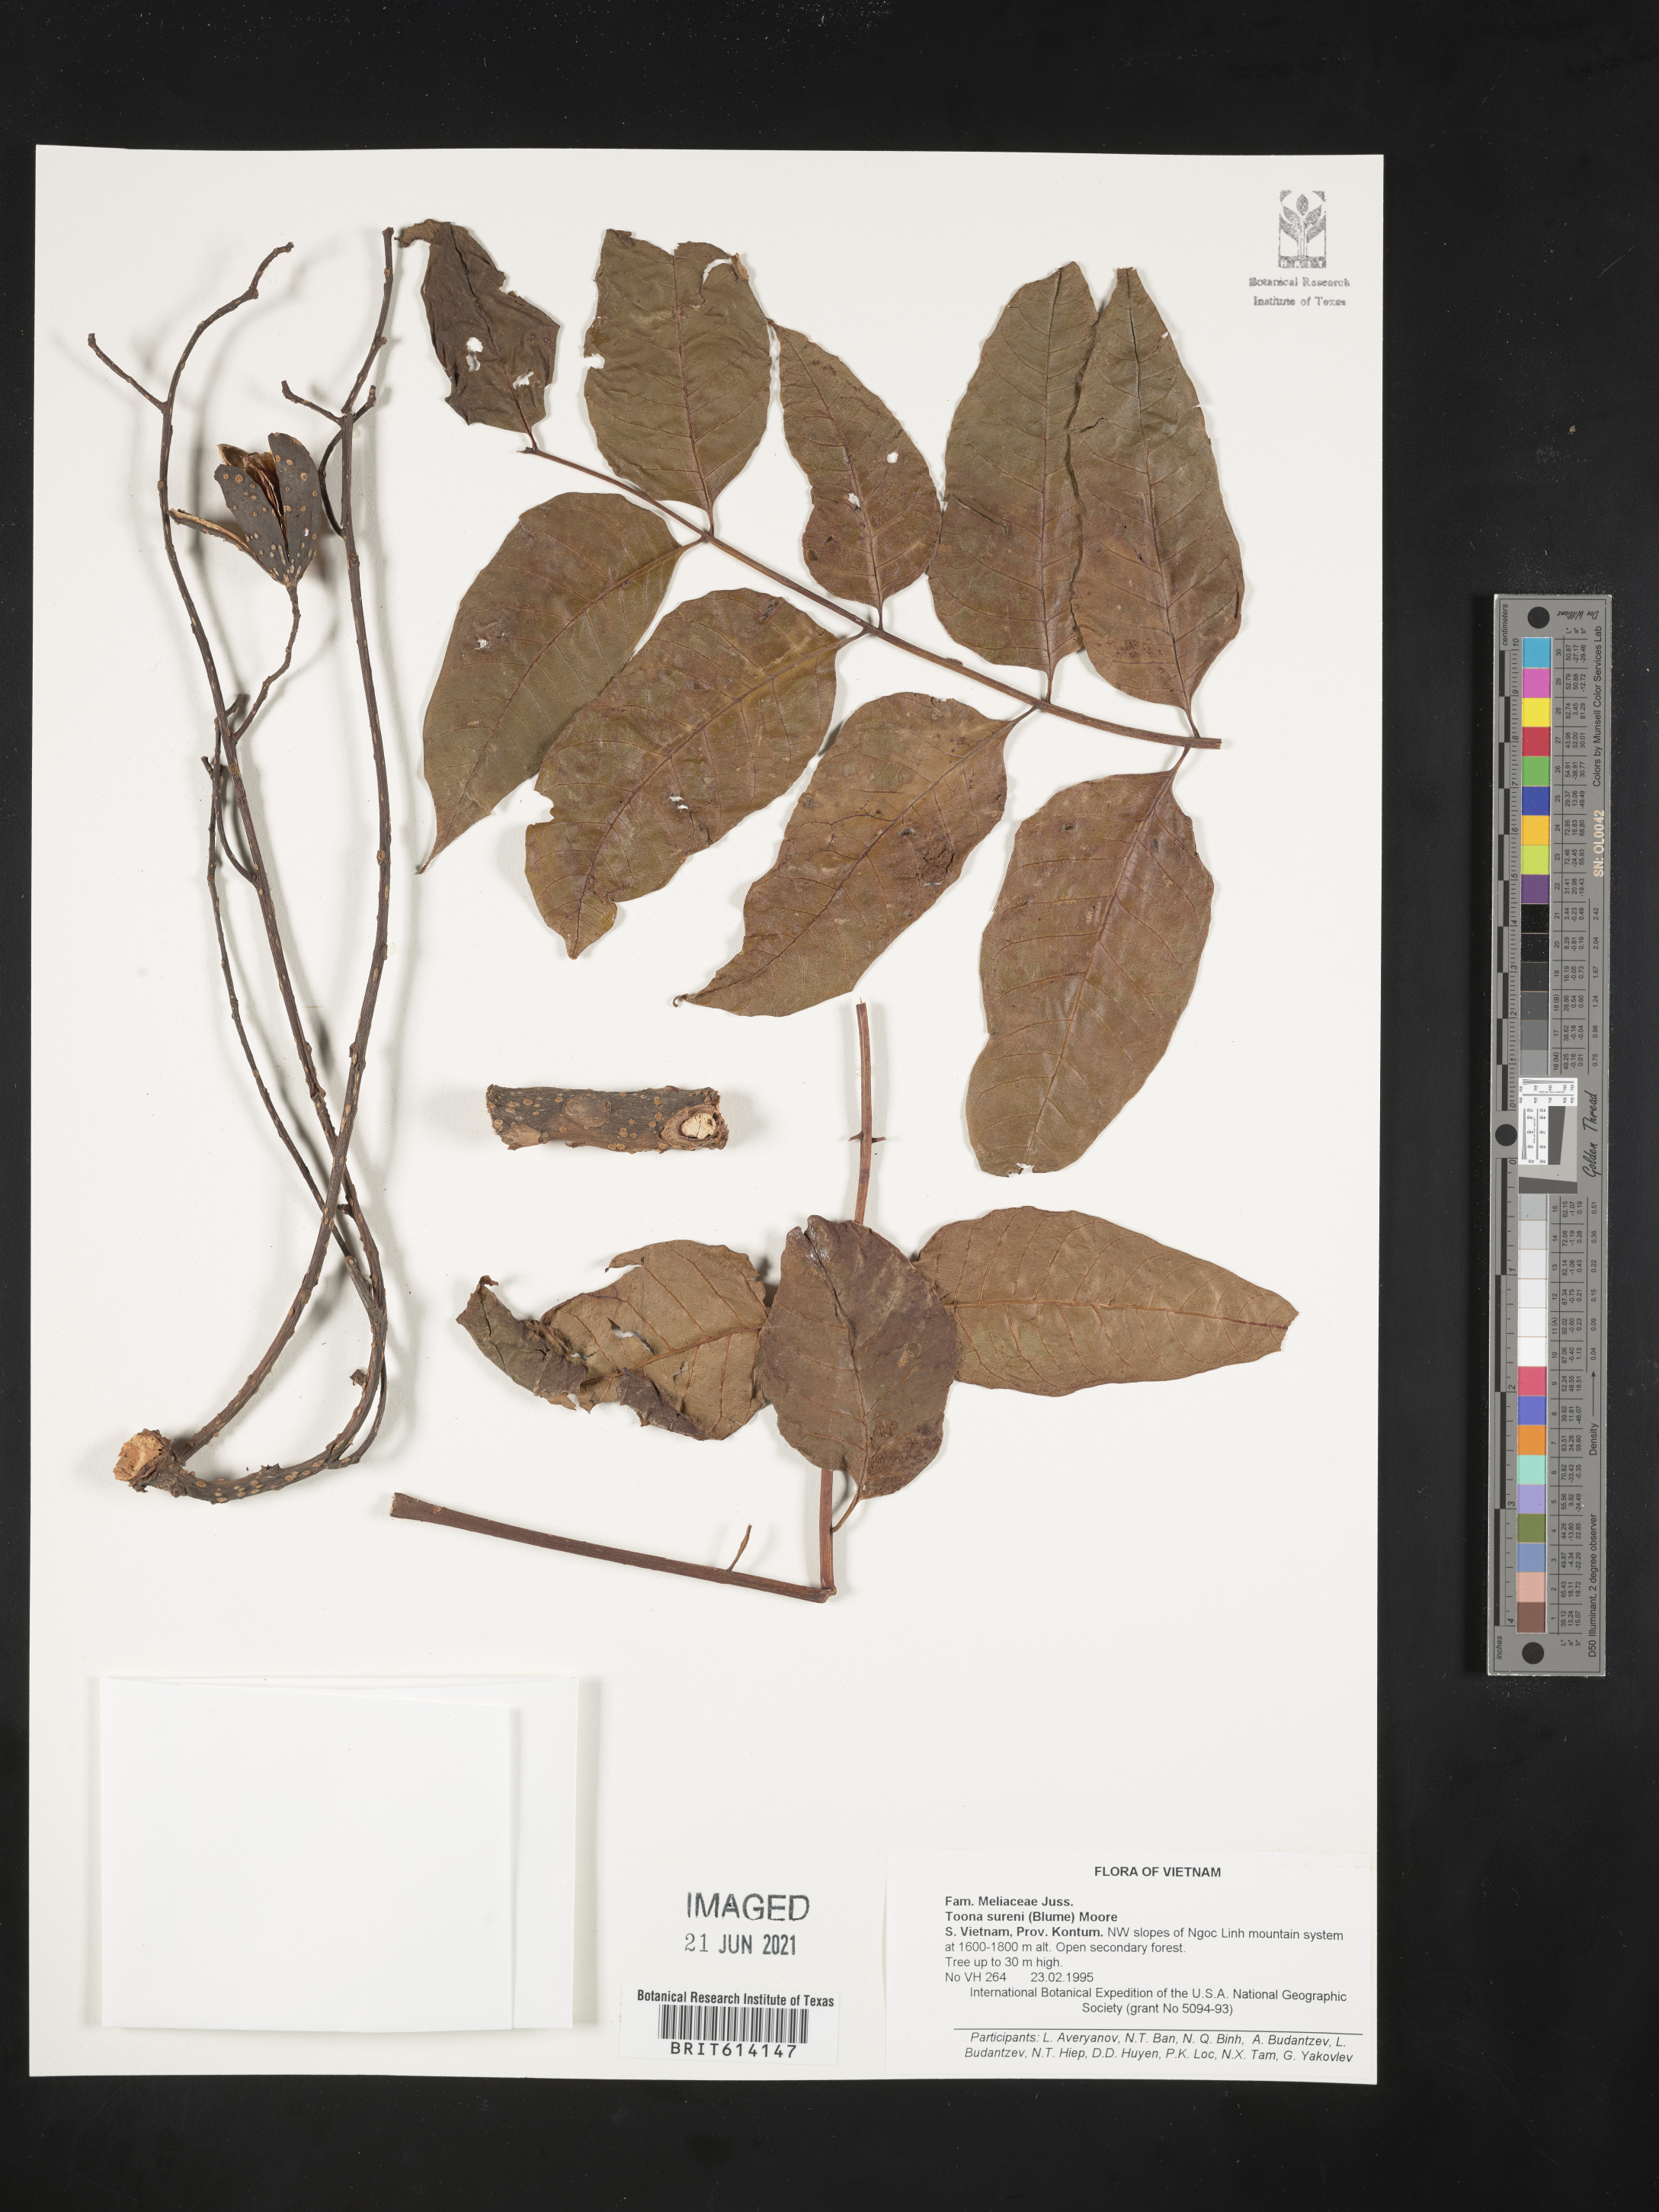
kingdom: Plantae
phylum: Tracheophyta
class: Magnoliopsida
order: Sapindales
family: Meliaceae
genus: Toona
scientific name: Toona sureni
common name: Red cedar
